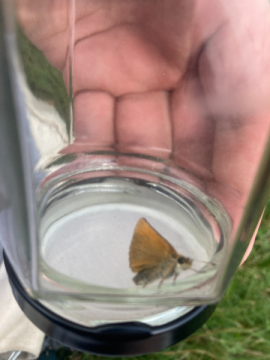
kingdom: Animalia
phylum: Arthropoda
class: Insecta
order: Lepidoptera
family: Hesperiidae
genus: Thymelicus
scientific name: Thymelicus lineola
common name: European Skipper
